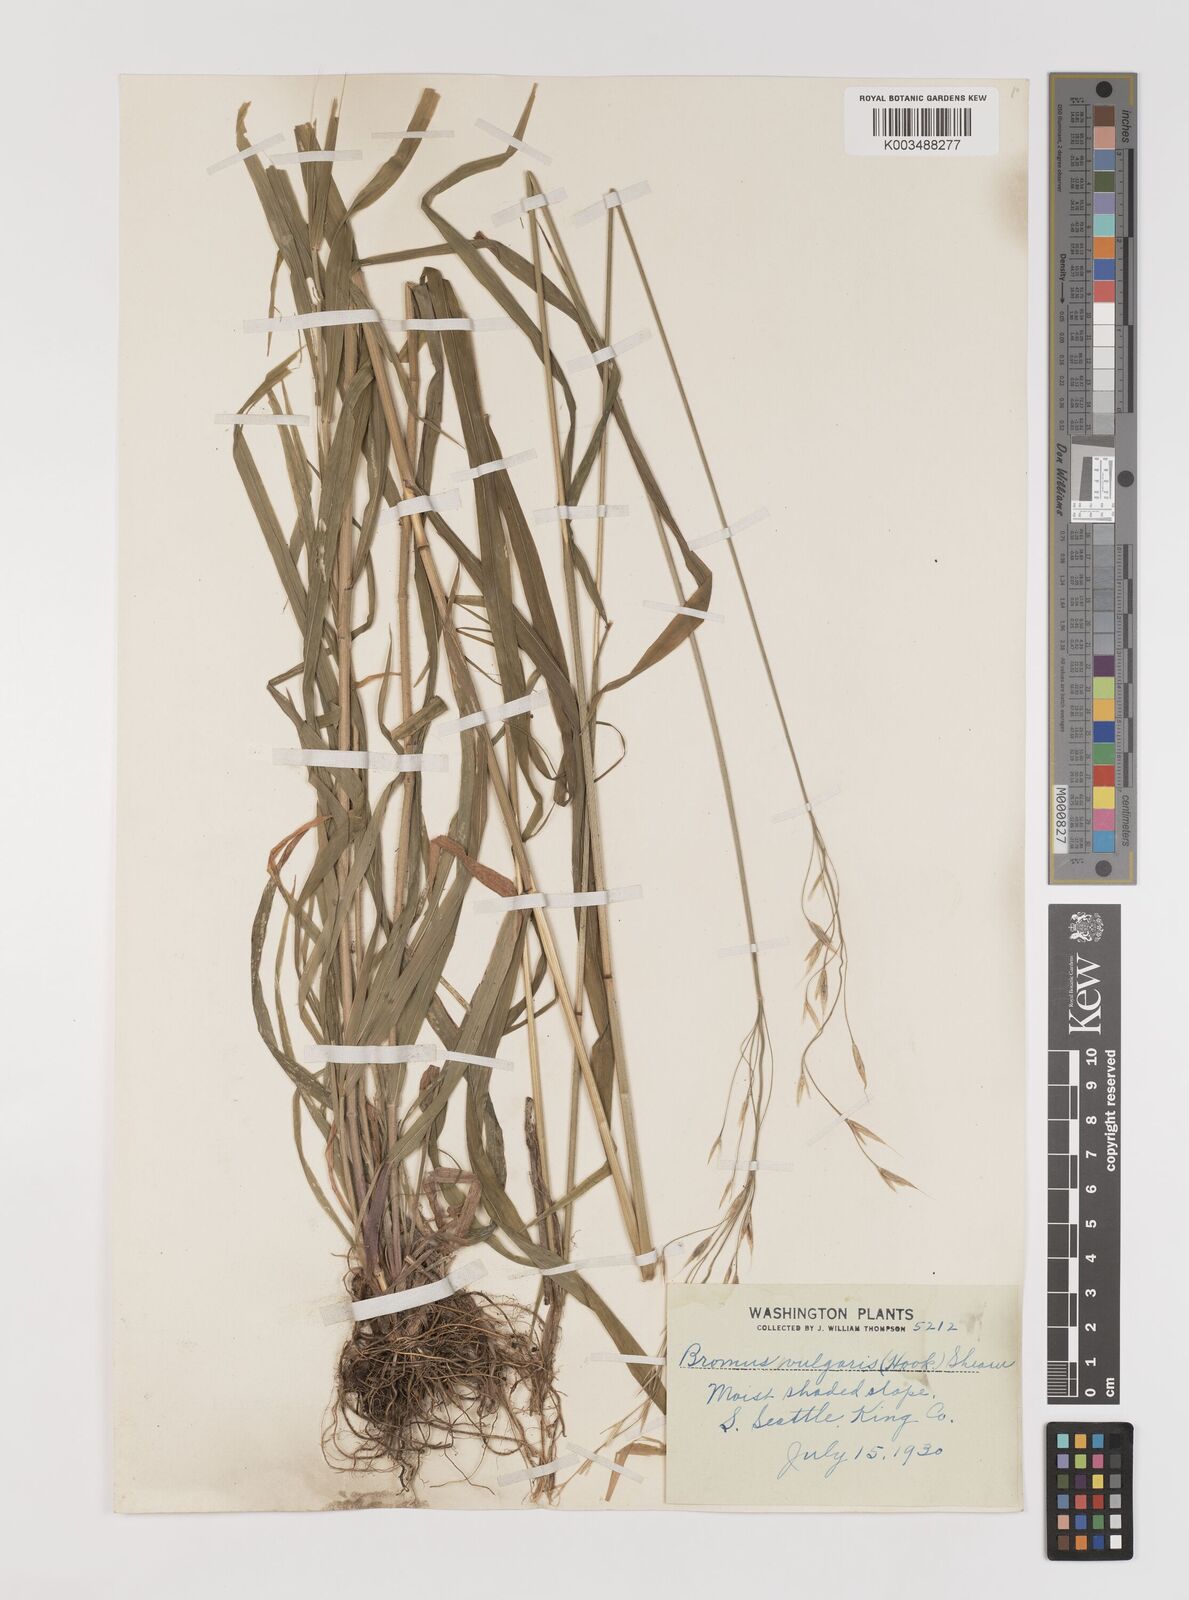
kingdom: Plantae
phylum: Tracheophyta
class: Liliopsida
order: Poales
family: Poaceae
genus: Bromus
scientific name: Bromus vulgaris
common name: Columbia brome
